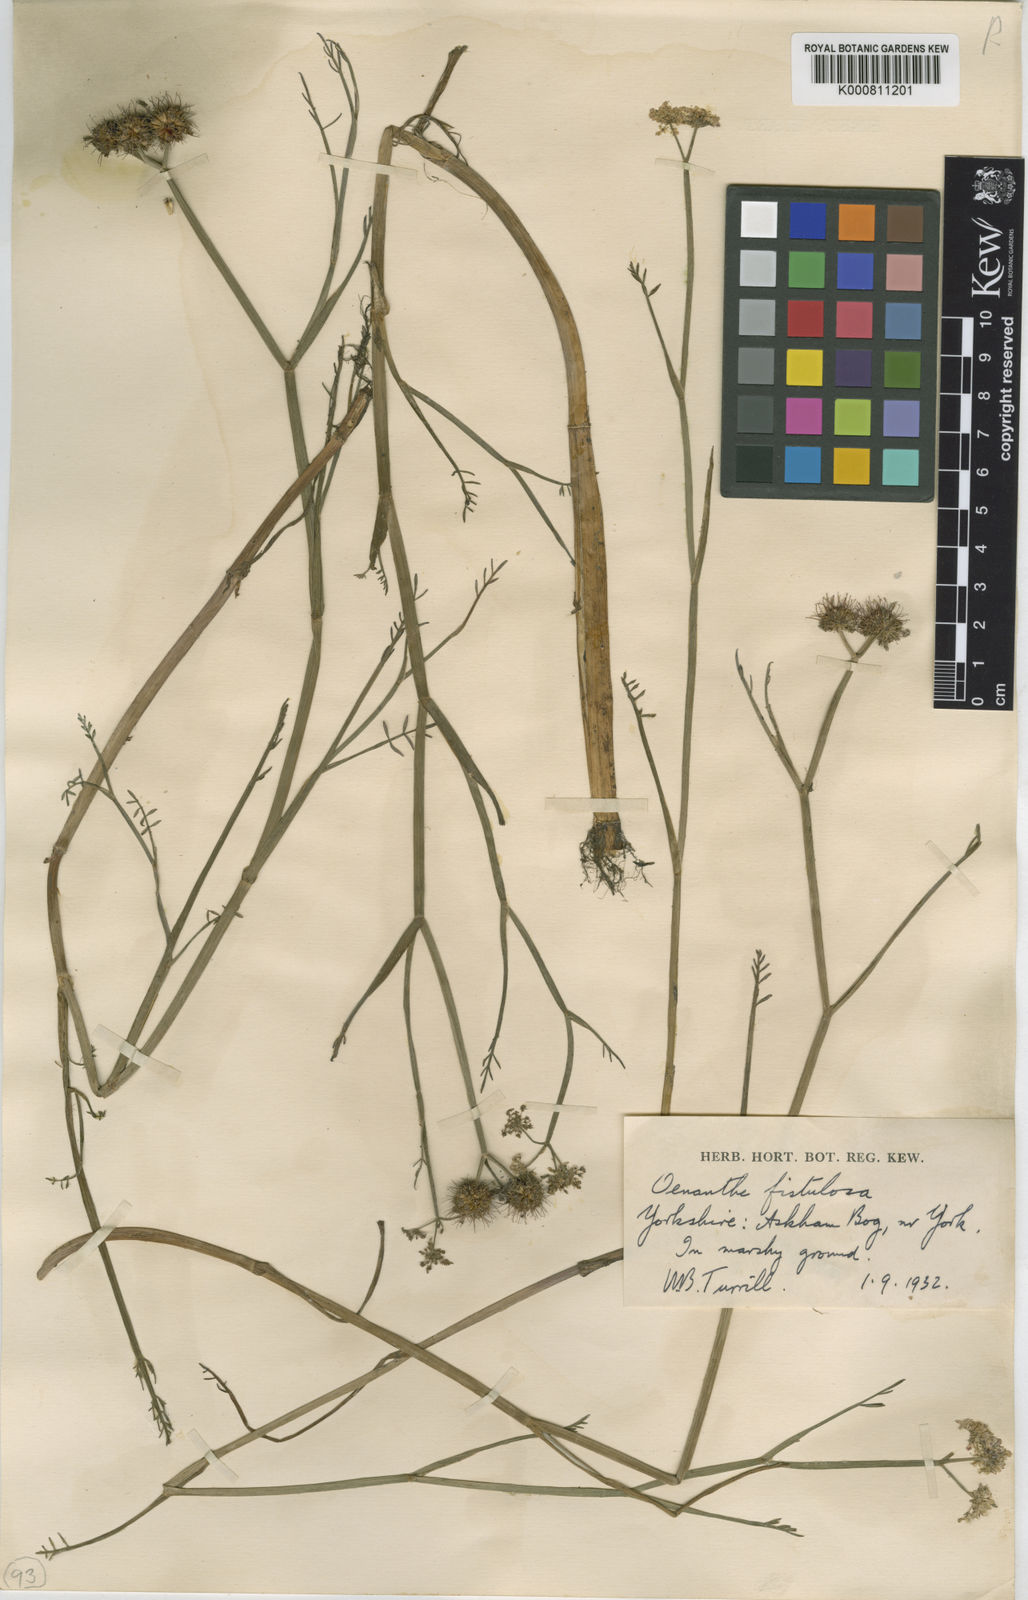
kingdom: Plantae
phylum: Tracheophyta
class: Magnoliopsida
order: Apiales
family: Apiaceae
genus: Oenanthe
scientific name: Oenanthe fistulosa
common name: Tubular water-dropwort
